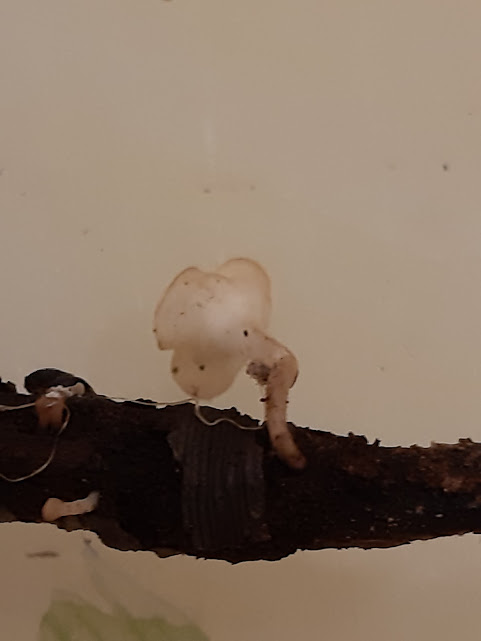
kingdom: Fungi
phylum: Ascomycota
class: Leotiomycetes
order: Helotiales
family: Helotiaceae
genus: Hymenoscyphus
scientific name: Hymenoscyphus
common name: stilkskive
